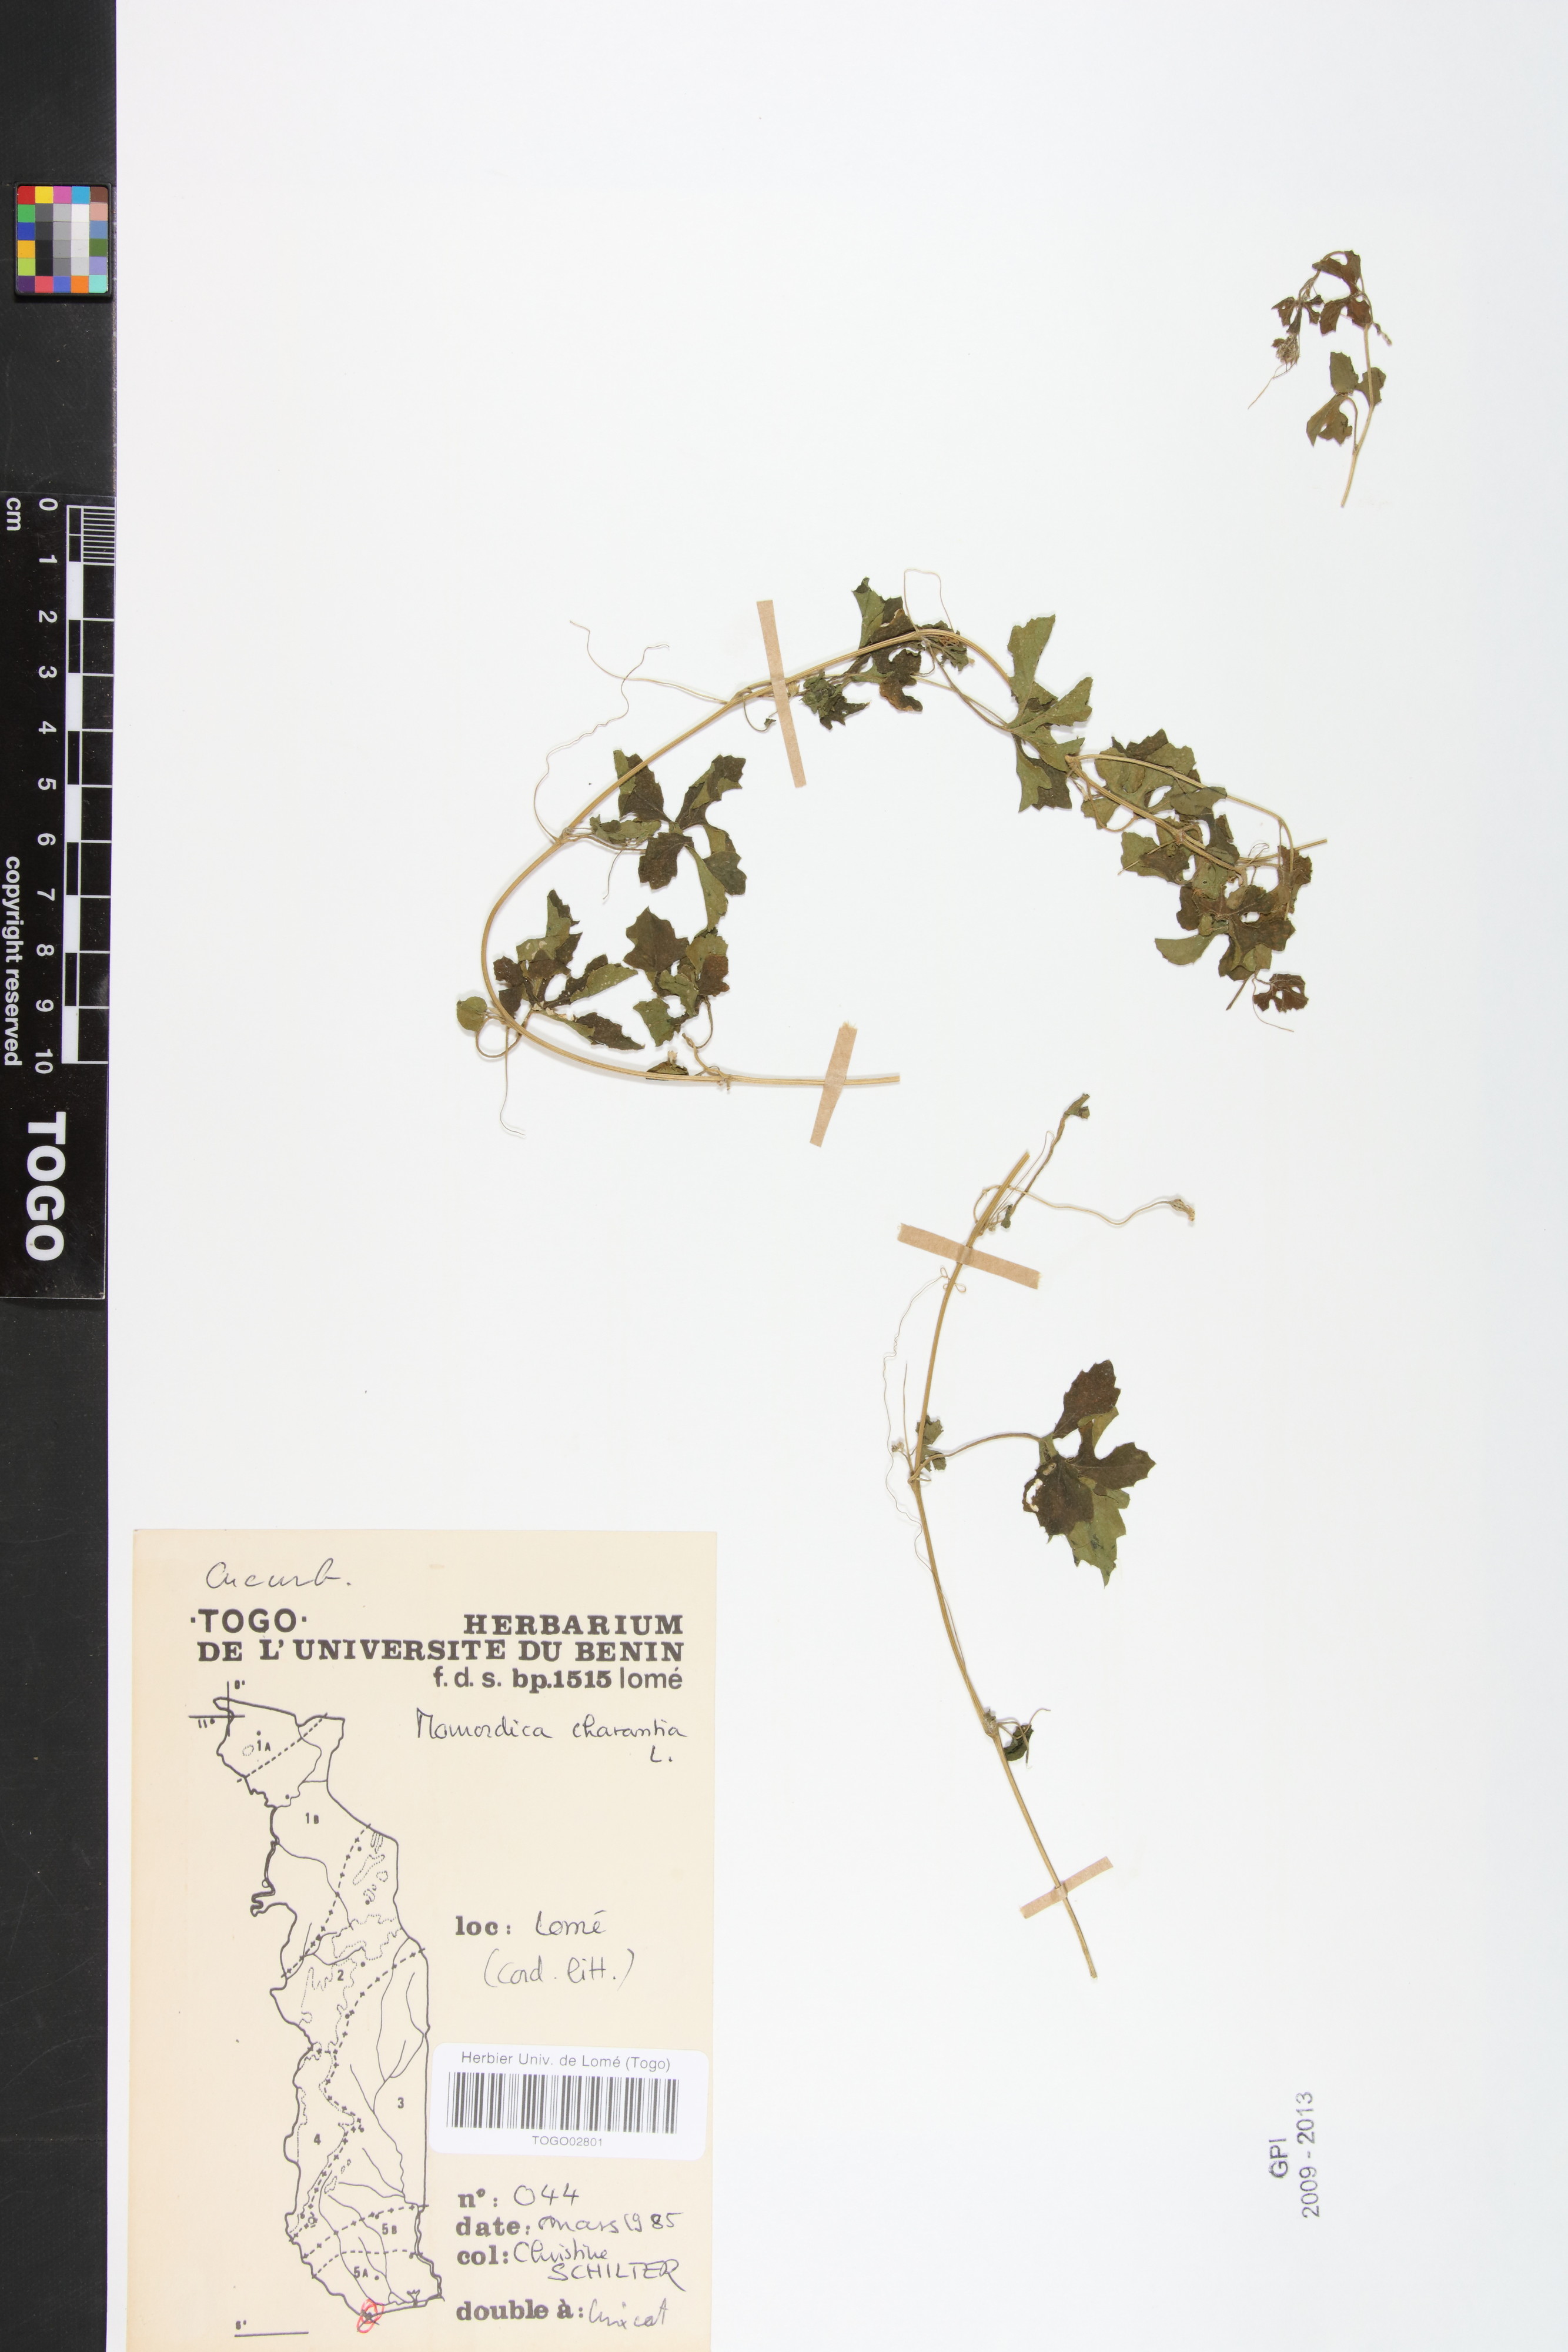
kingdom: Plantae
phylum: Tracheophyta
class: Magnoliopsida
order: Cucurbitales
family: Cucurbitaceae
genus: Momordica
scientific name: Momordica charantia
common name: Balsampear
